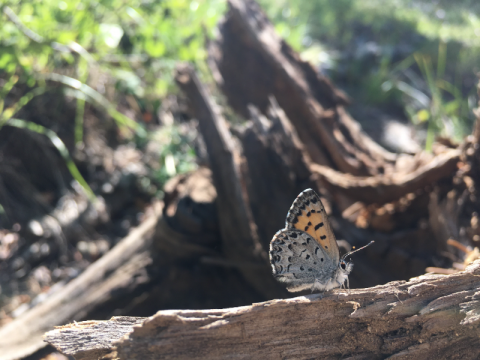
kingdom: Animalia
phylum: Arthropoda
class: Insecta
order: Lepidoptera
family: Lycaenidae
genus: Lycaena
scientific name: Lycaena mariposa
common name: Mariposa Copper
